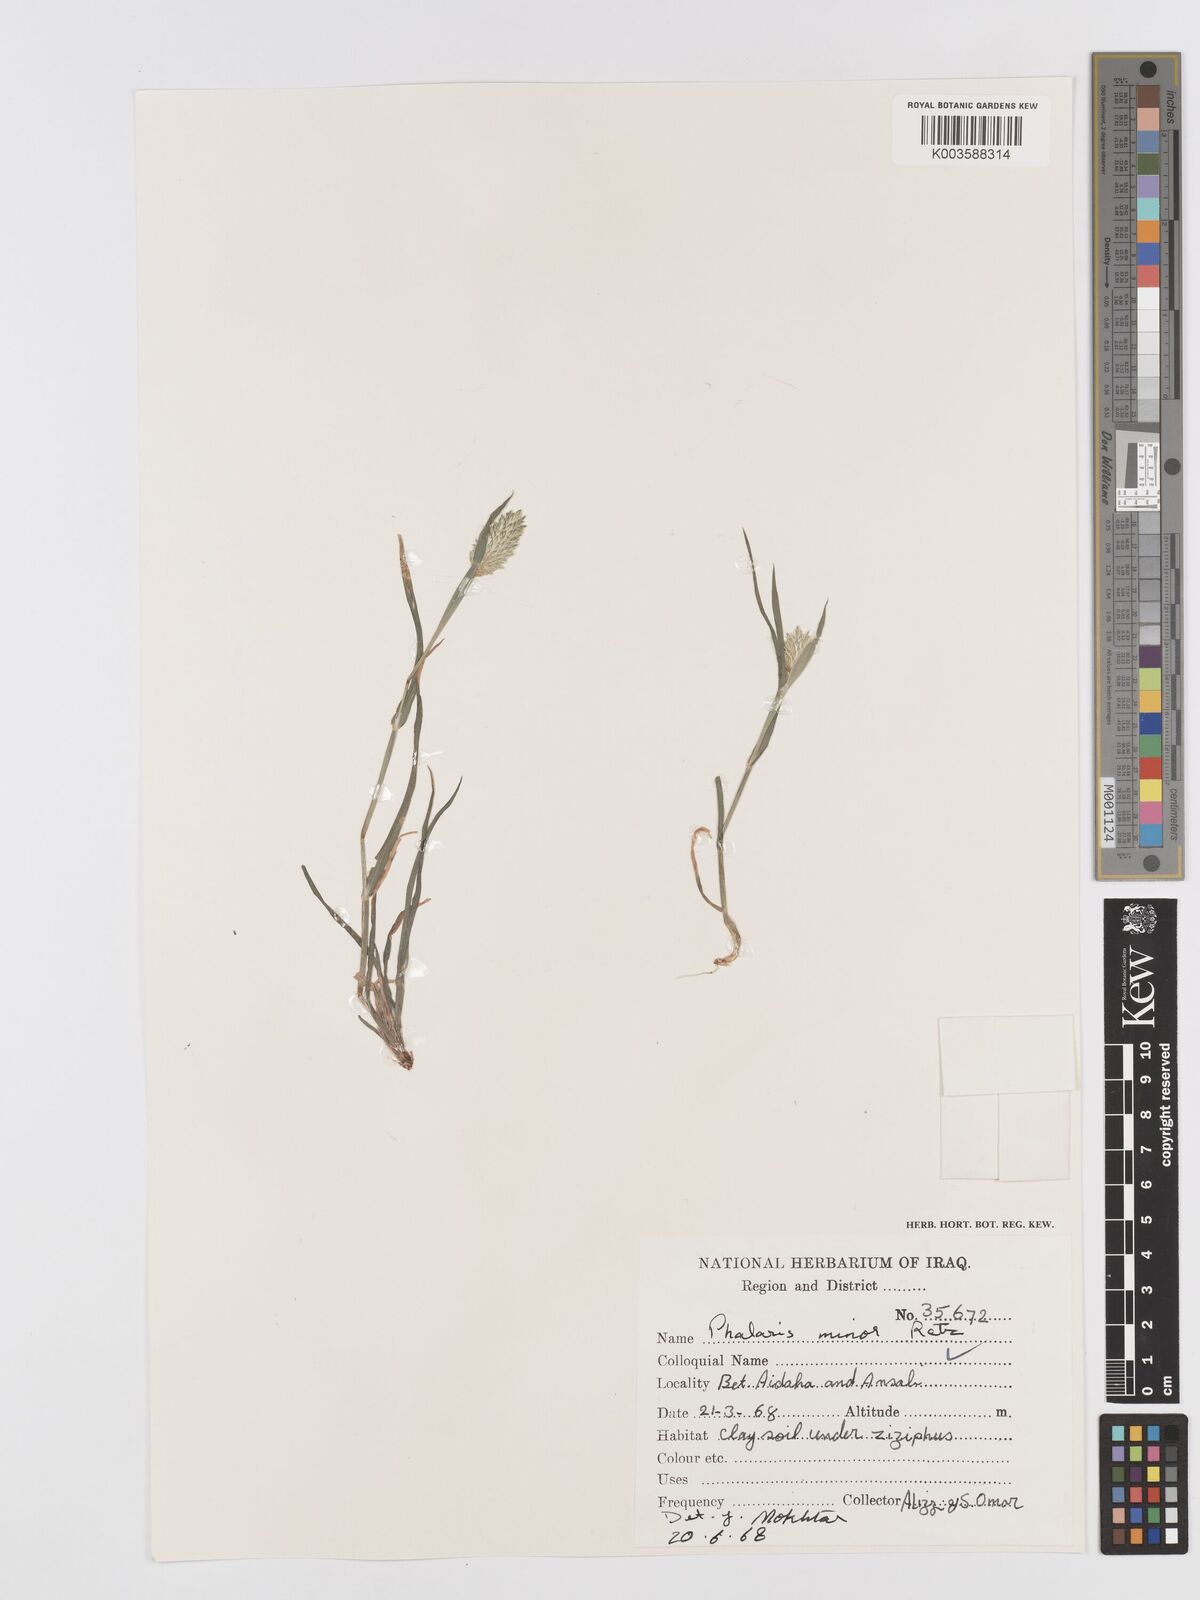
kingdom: Plantae
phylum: Tracheophyta
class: Liliopsida
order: Poales
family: Poaceae
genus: Phalaris
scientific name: Phalaris minor
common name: Littleseed canarygrass
